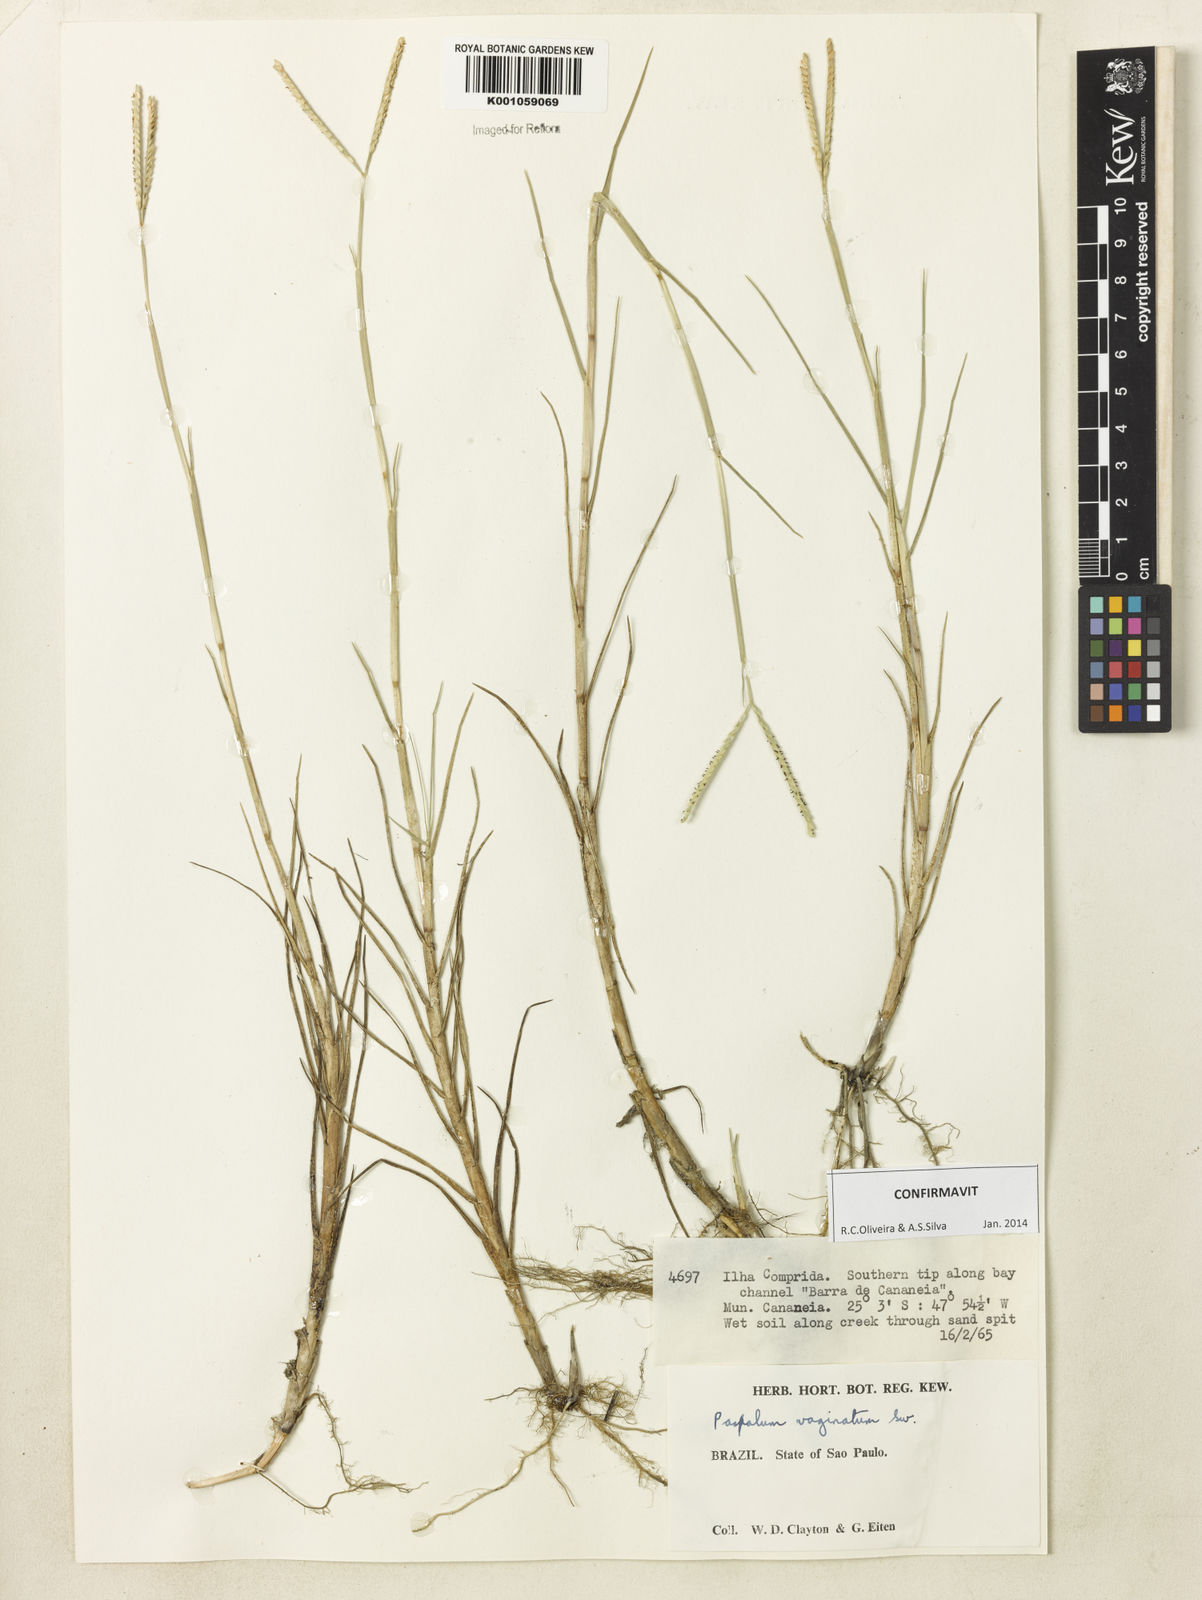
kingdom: Plantae
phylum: Tracheophyta
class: Liliopsida
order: Poales
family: Poaceae
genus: Paspalum
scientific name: Paspalum vaginatum
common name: Seashore paspalum
